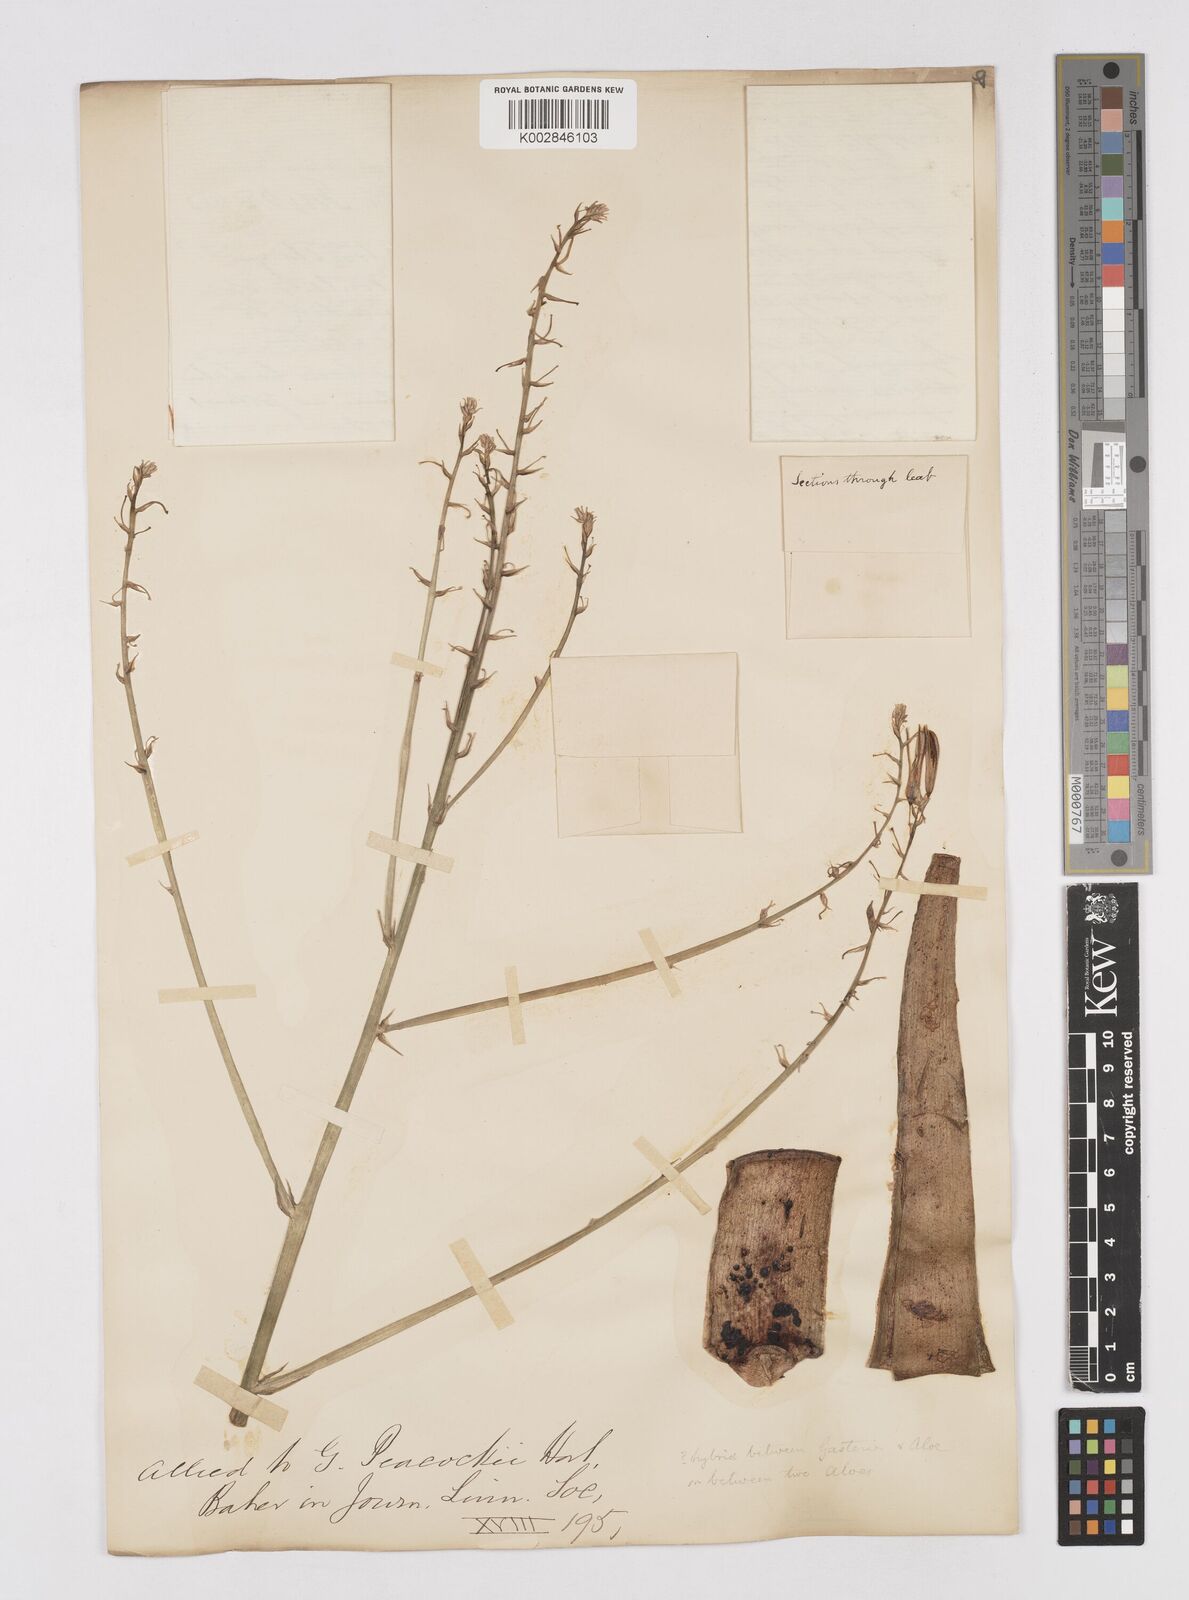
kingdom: Plantae
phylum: Tracheophyta
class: Liliopsida
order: Asparagales
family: Asphodelaceae
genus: Gasteria
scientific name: Gasteria
